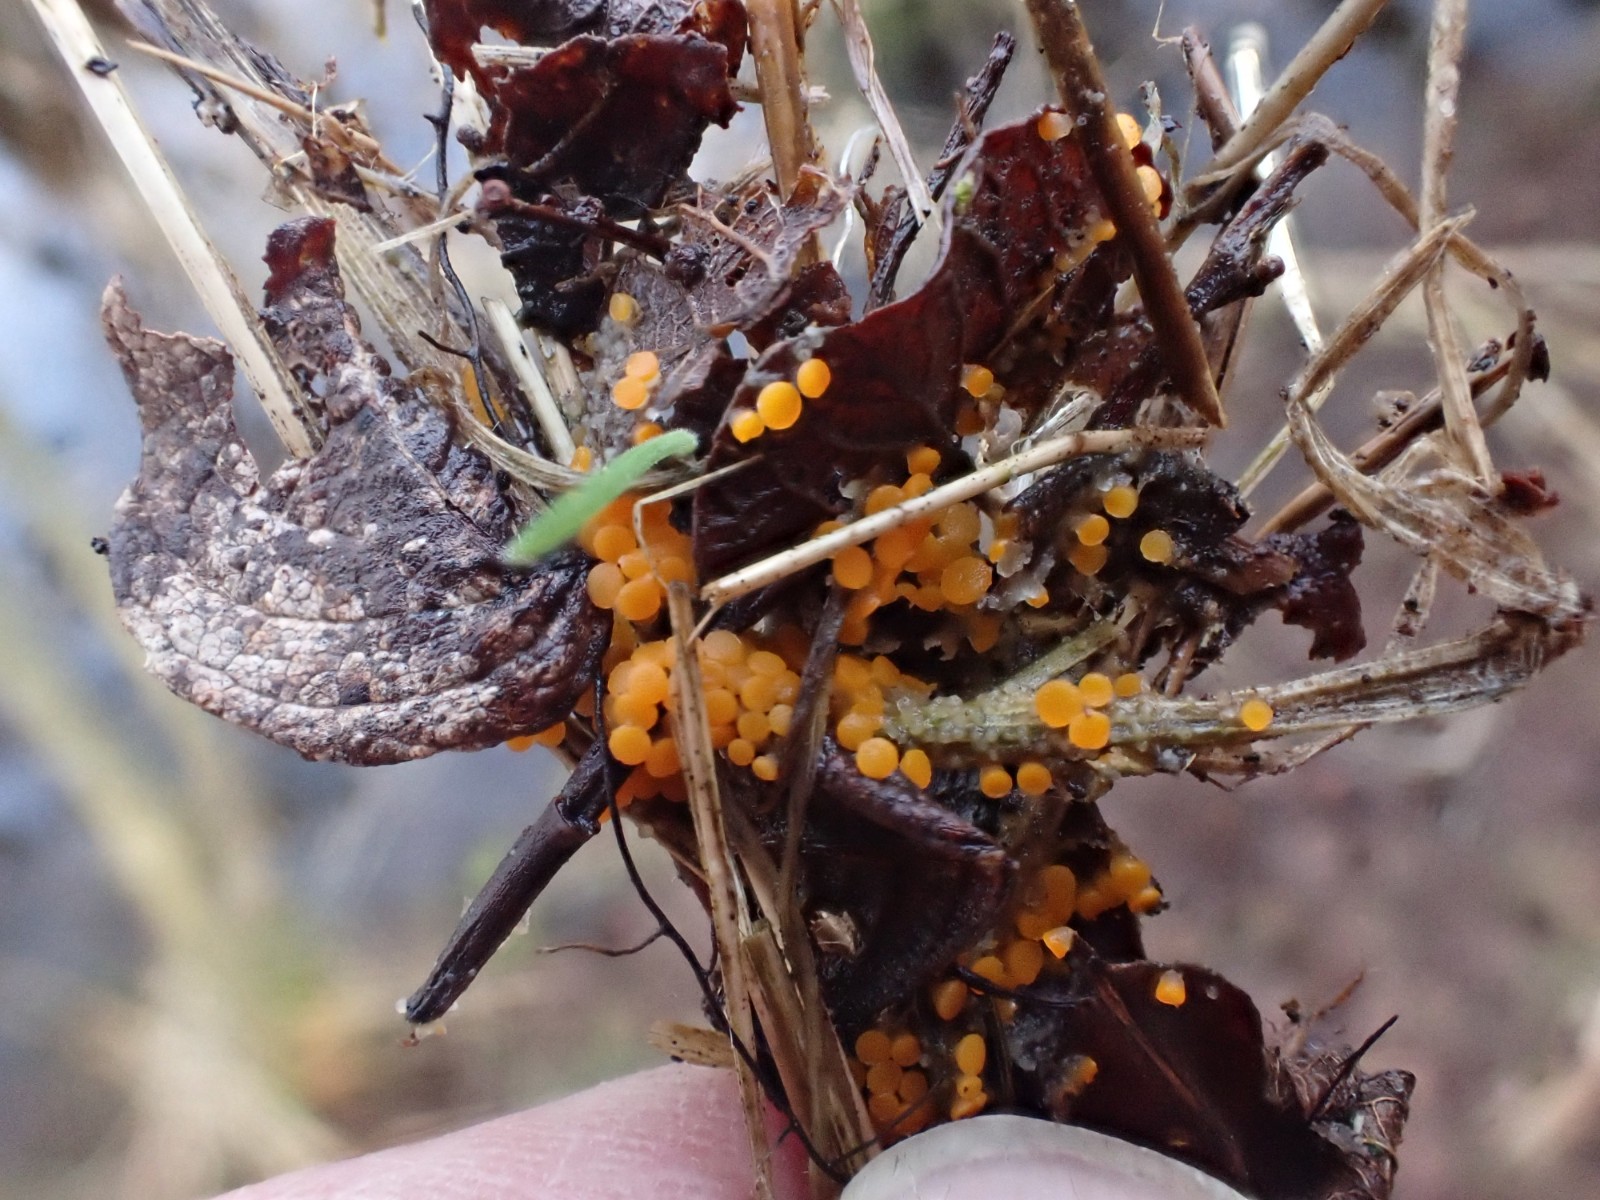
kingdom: Fungi
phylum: Ascomycota
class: Pezizomycetes
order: Pezizales
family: Pyronemataceae
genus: Byssonectria
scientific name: Byssonectria terrestris
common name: hjortebæger
